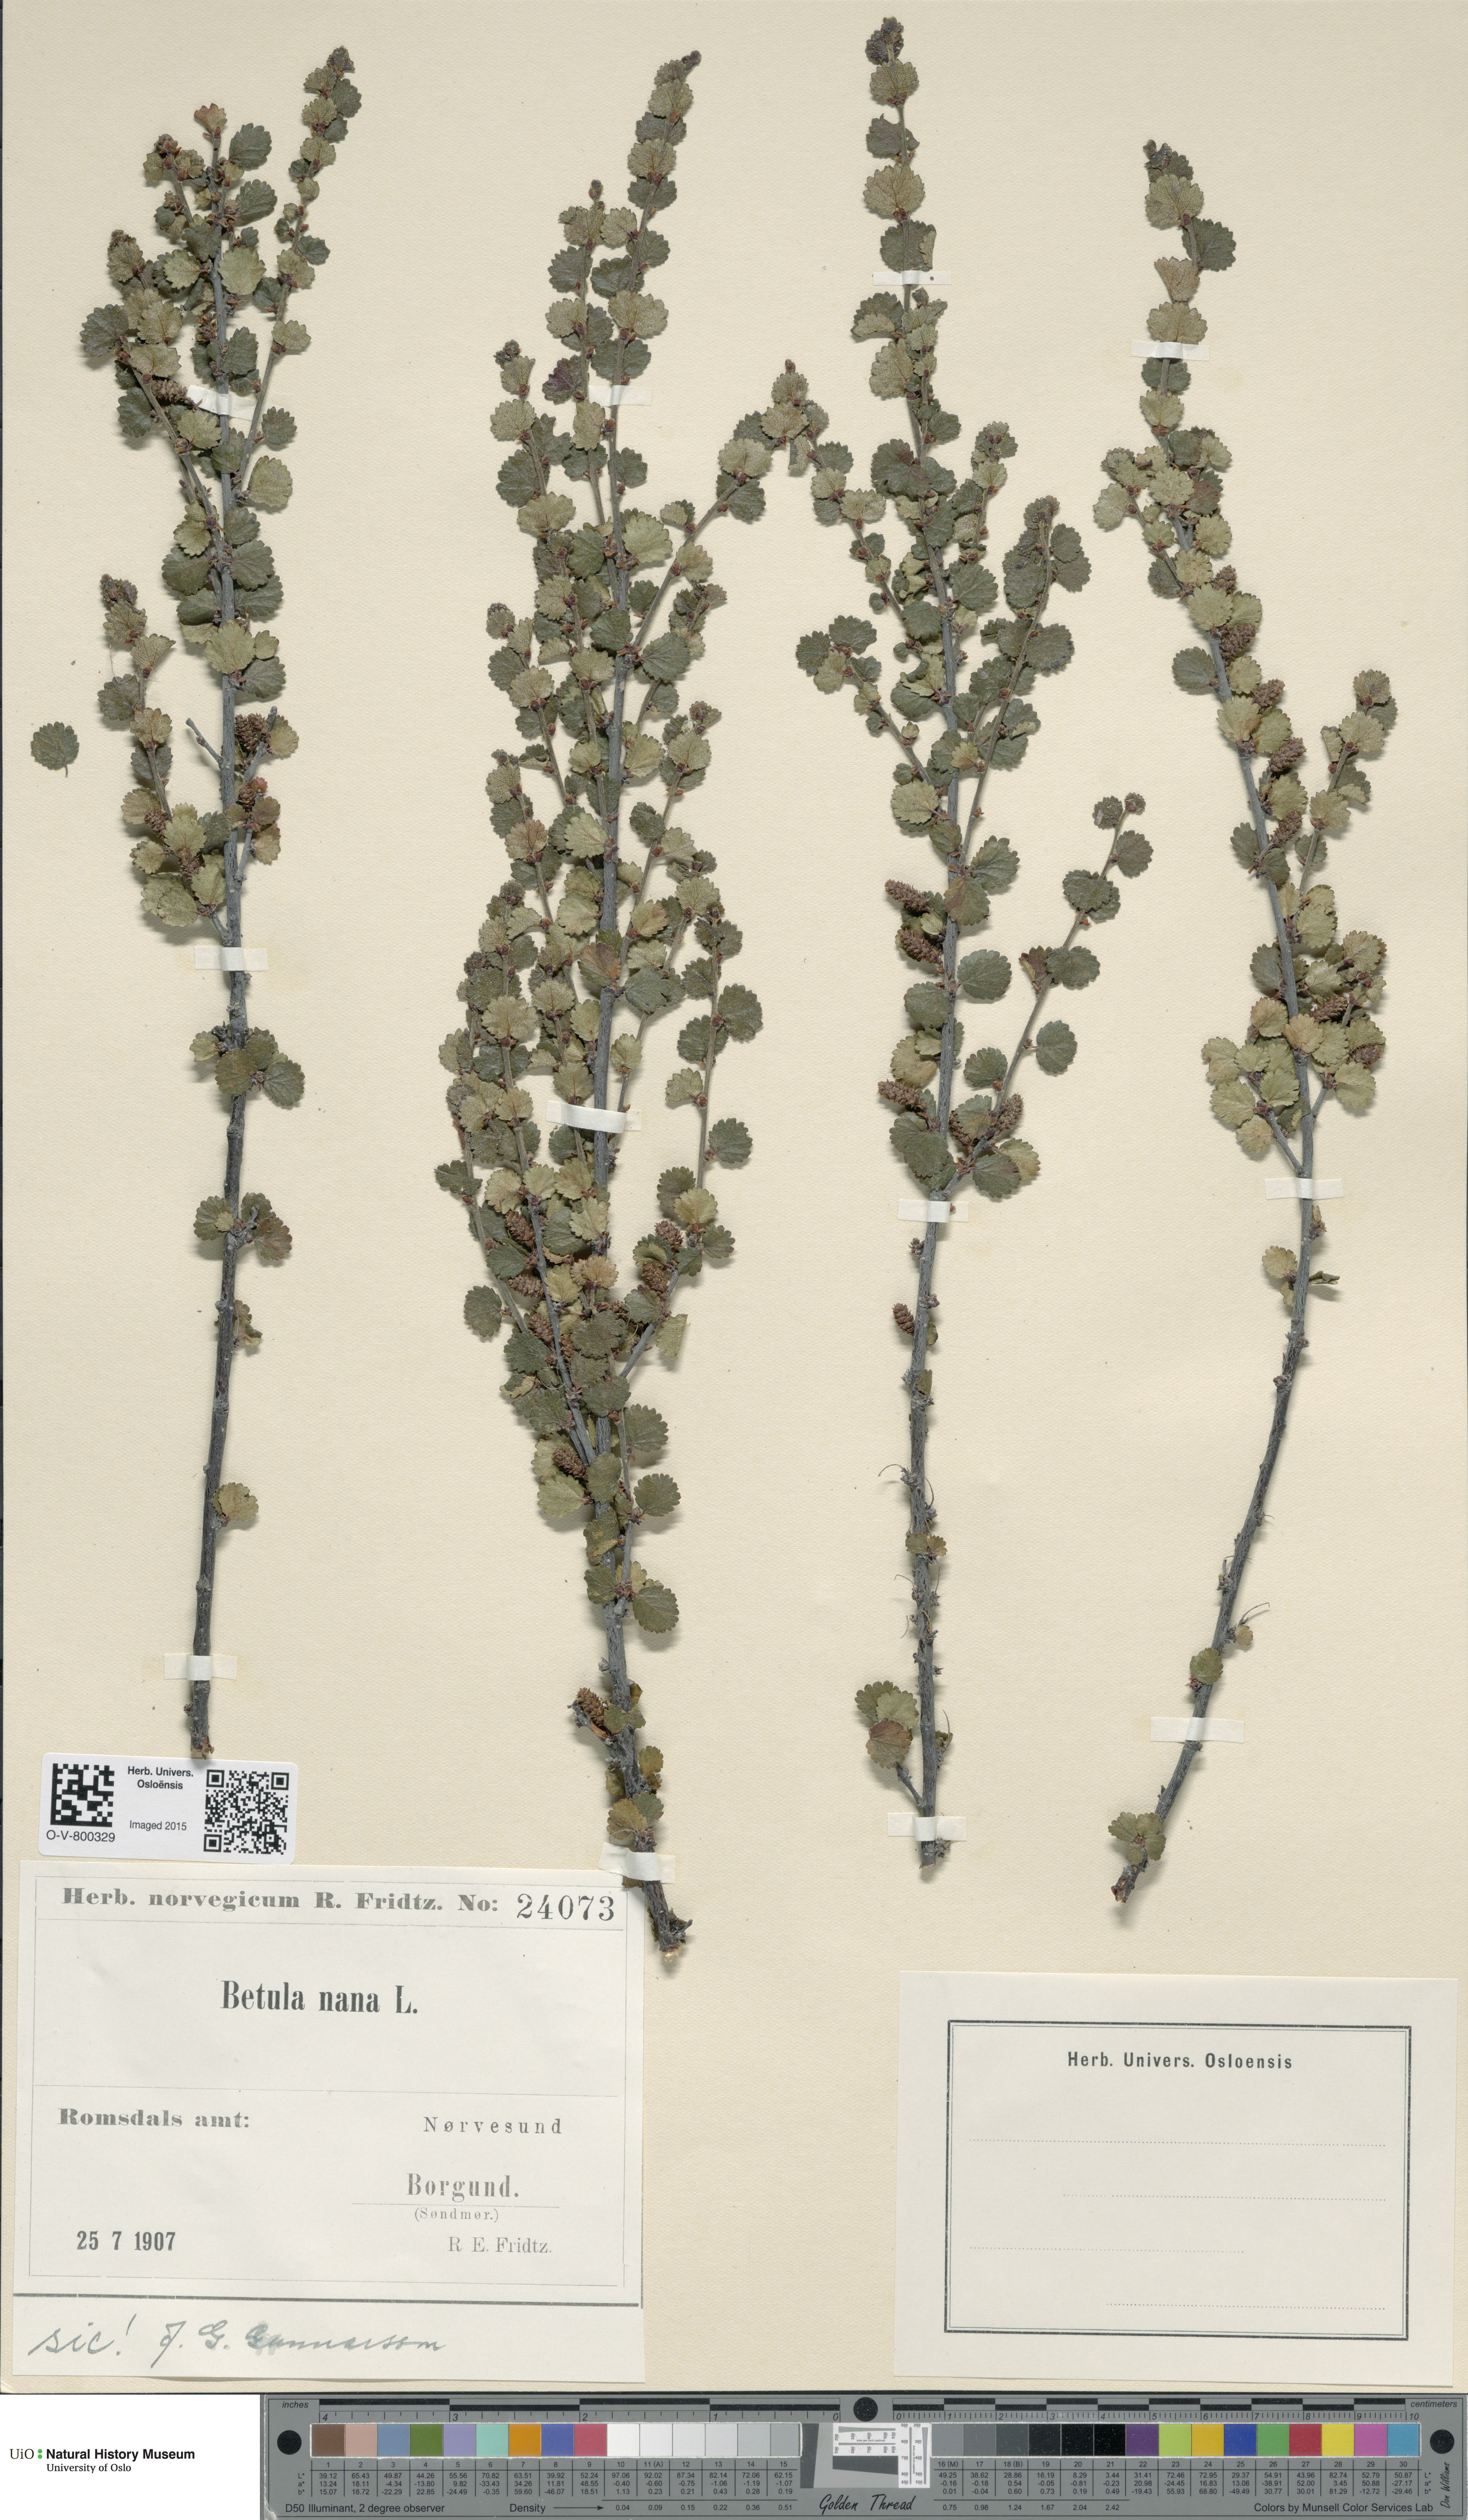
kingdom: Plantae
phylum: Tracheophyta
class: Magnoliopsida
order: Fagales
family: Betulaceae
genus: Betula
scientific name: Betula nana
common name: Arctic dwarf birch
